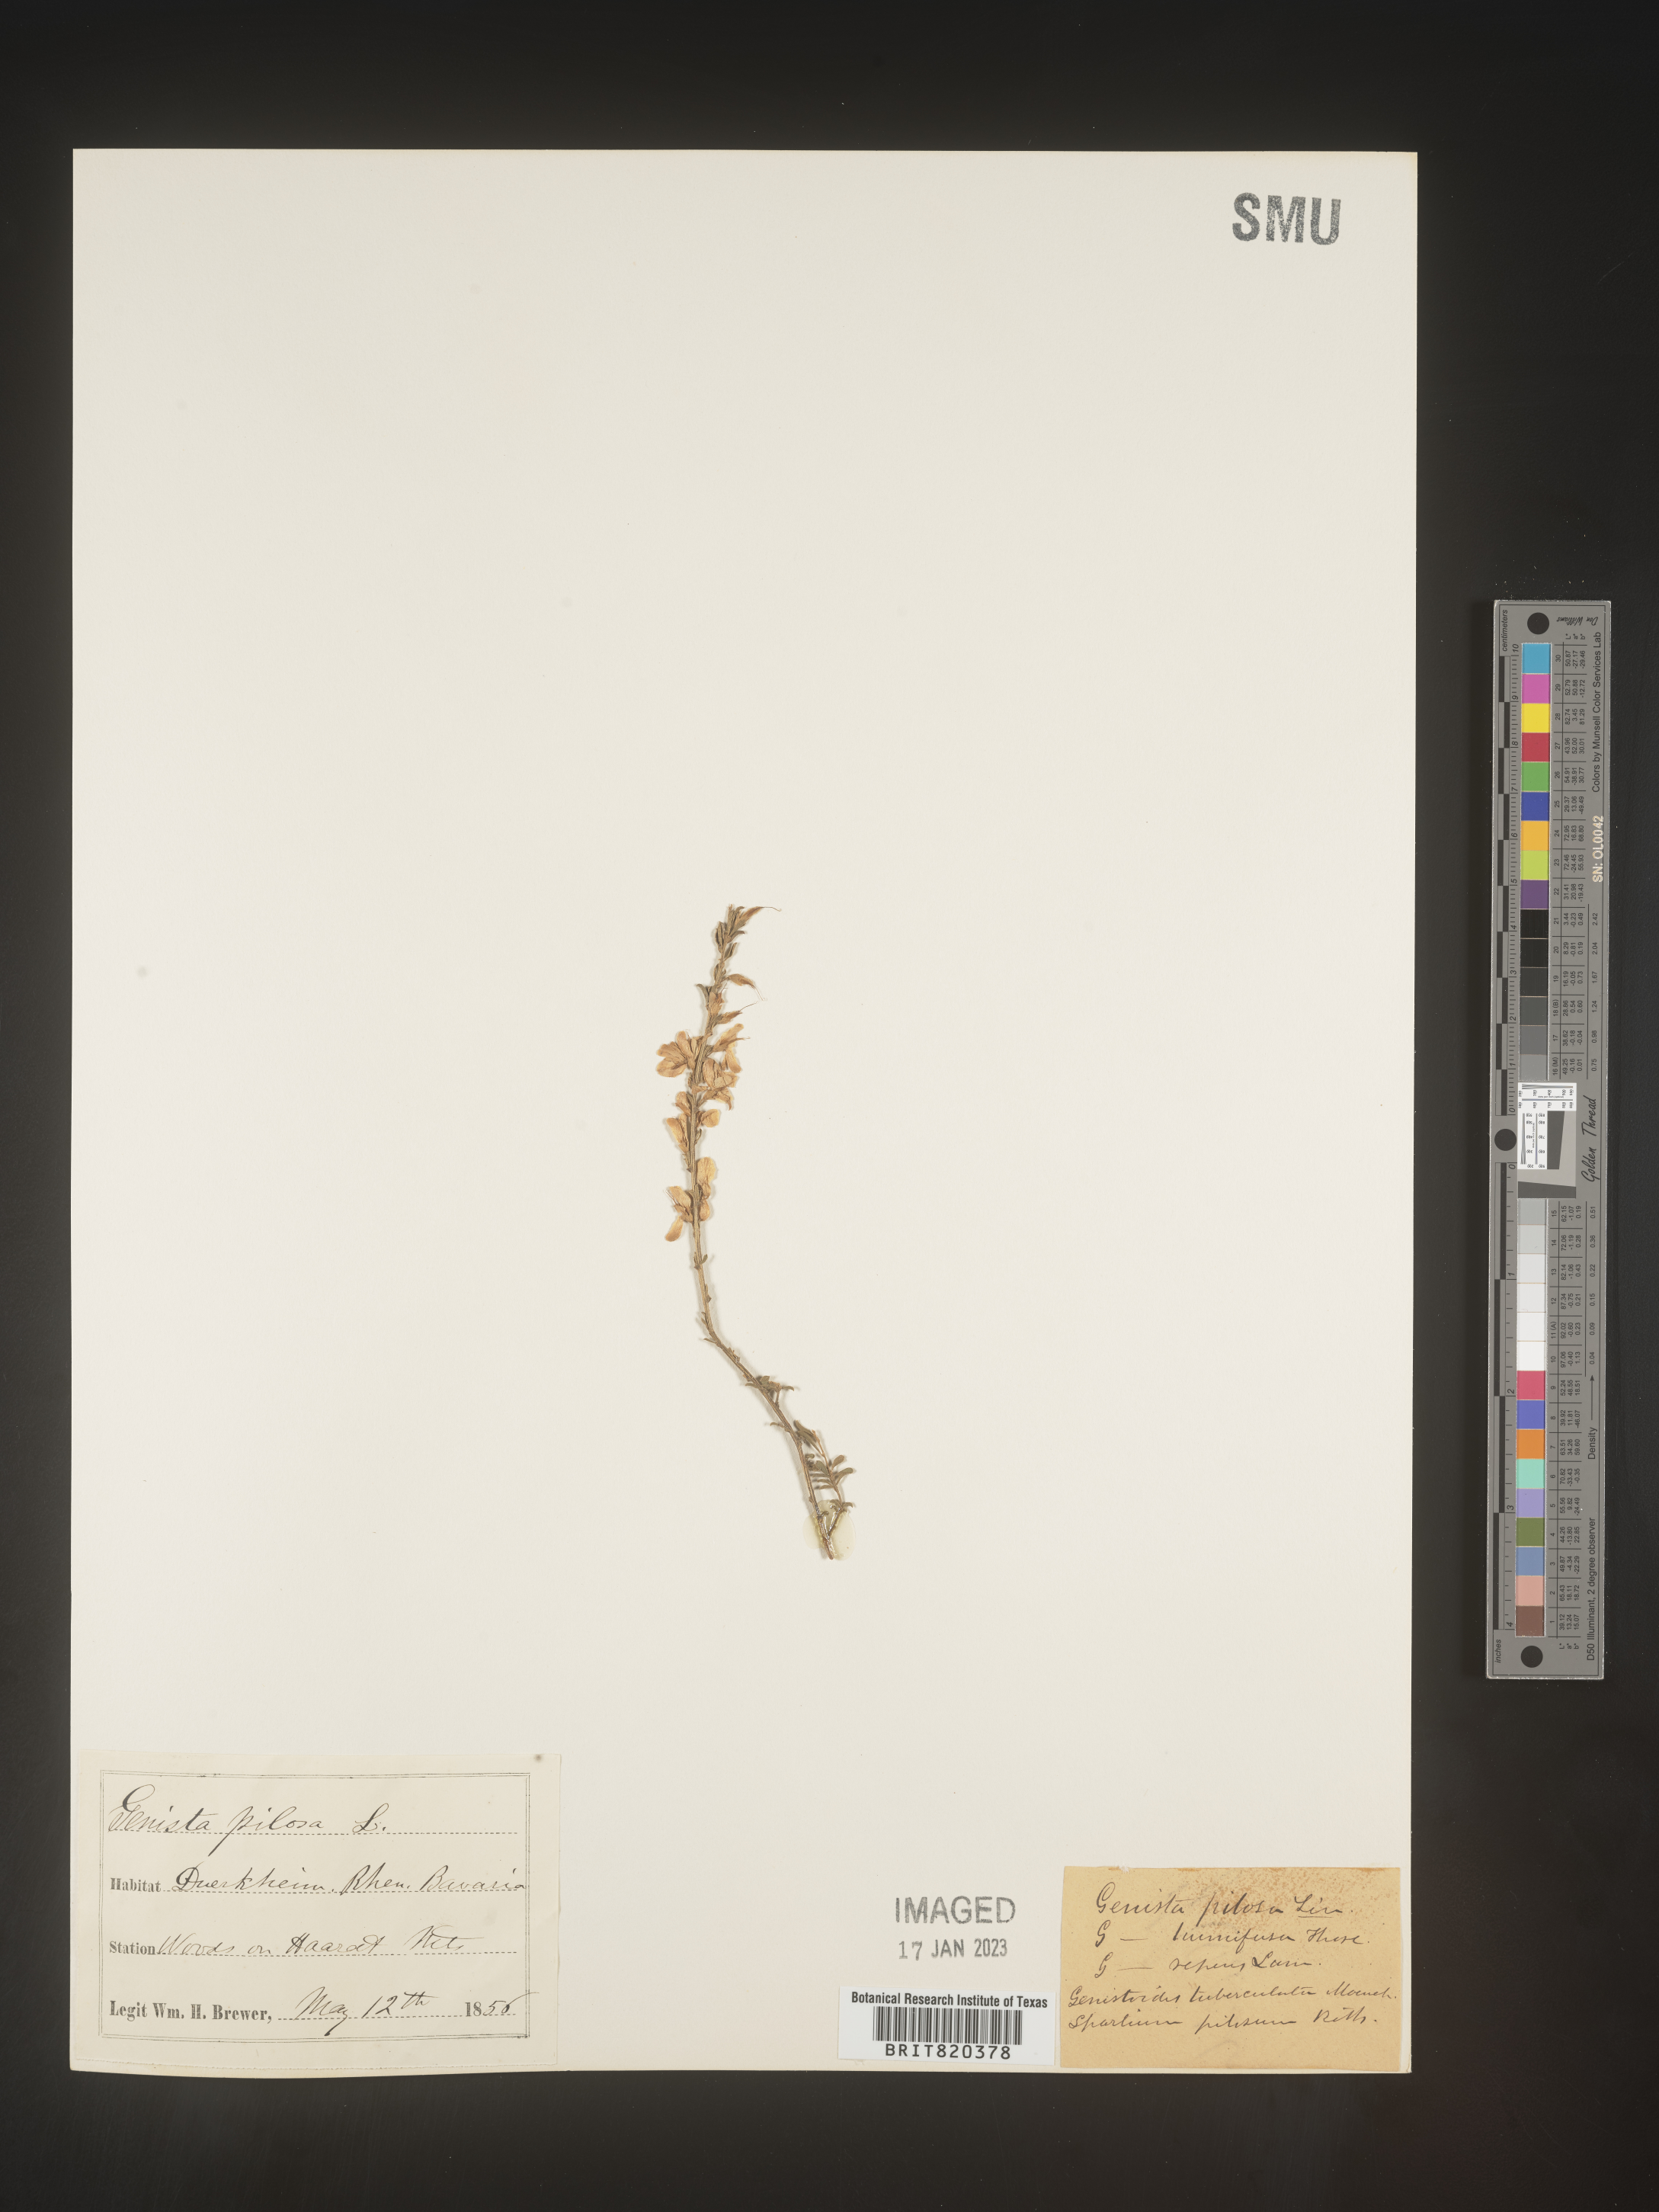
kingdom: Plantae
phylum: Tracheophyta
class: Magnoliopsida
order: Fabales
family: Fabaceae
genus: Genista
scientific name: Genista
